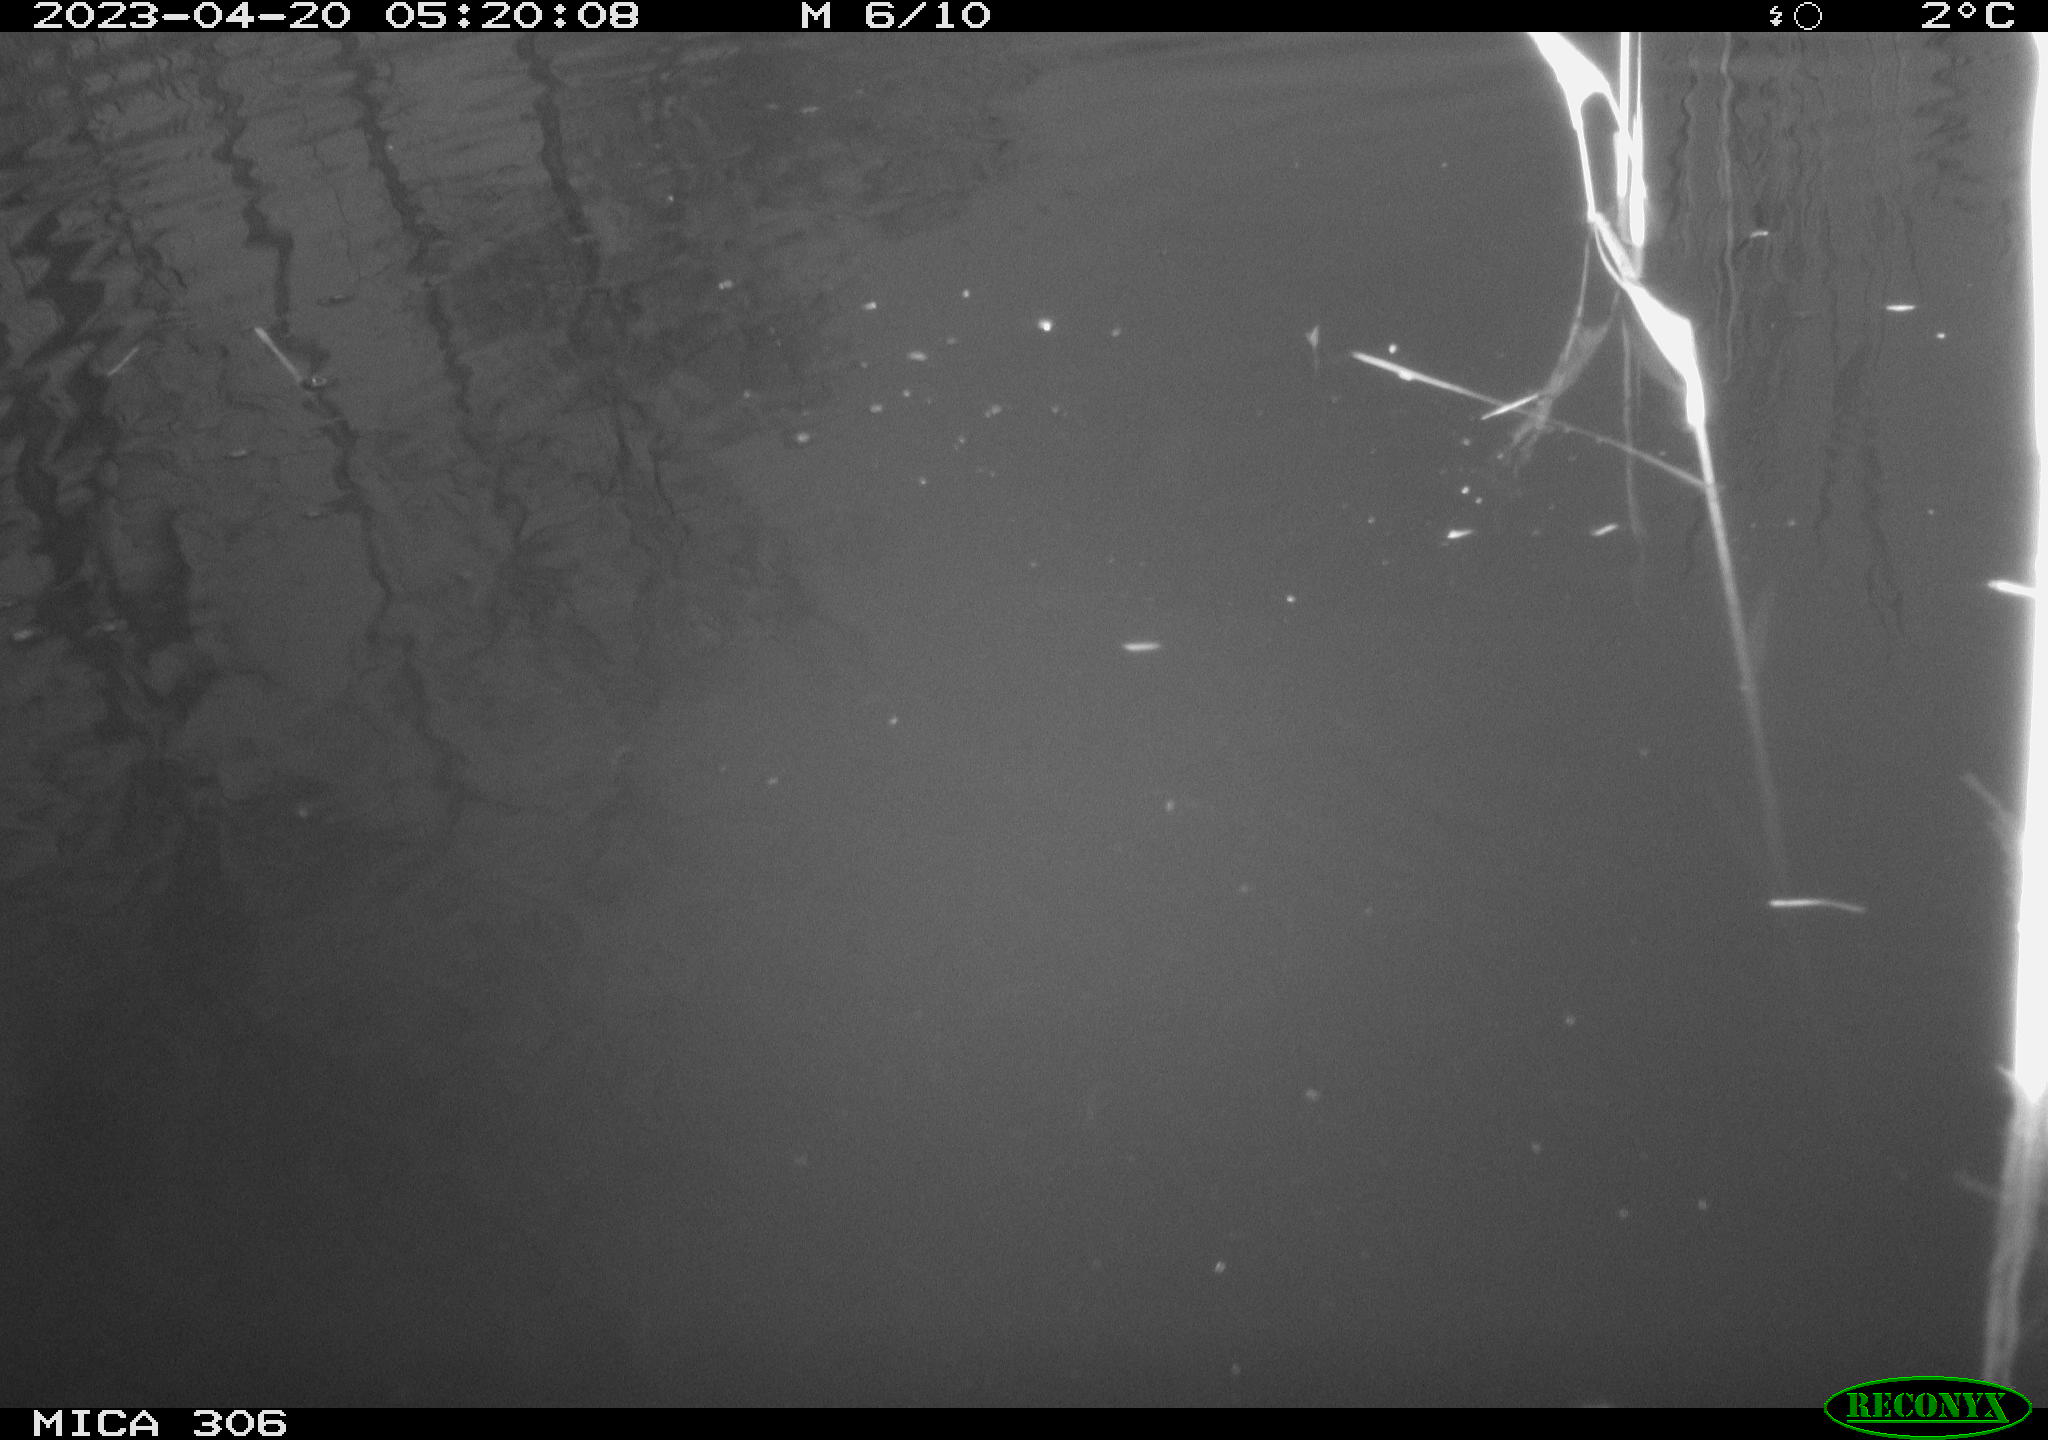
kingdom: Animalia
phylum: Chordata
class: Aves
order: Gruiformes
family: Rallidae
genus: Gallinula
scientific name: Gallinula chloropus
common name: Common moorhen
